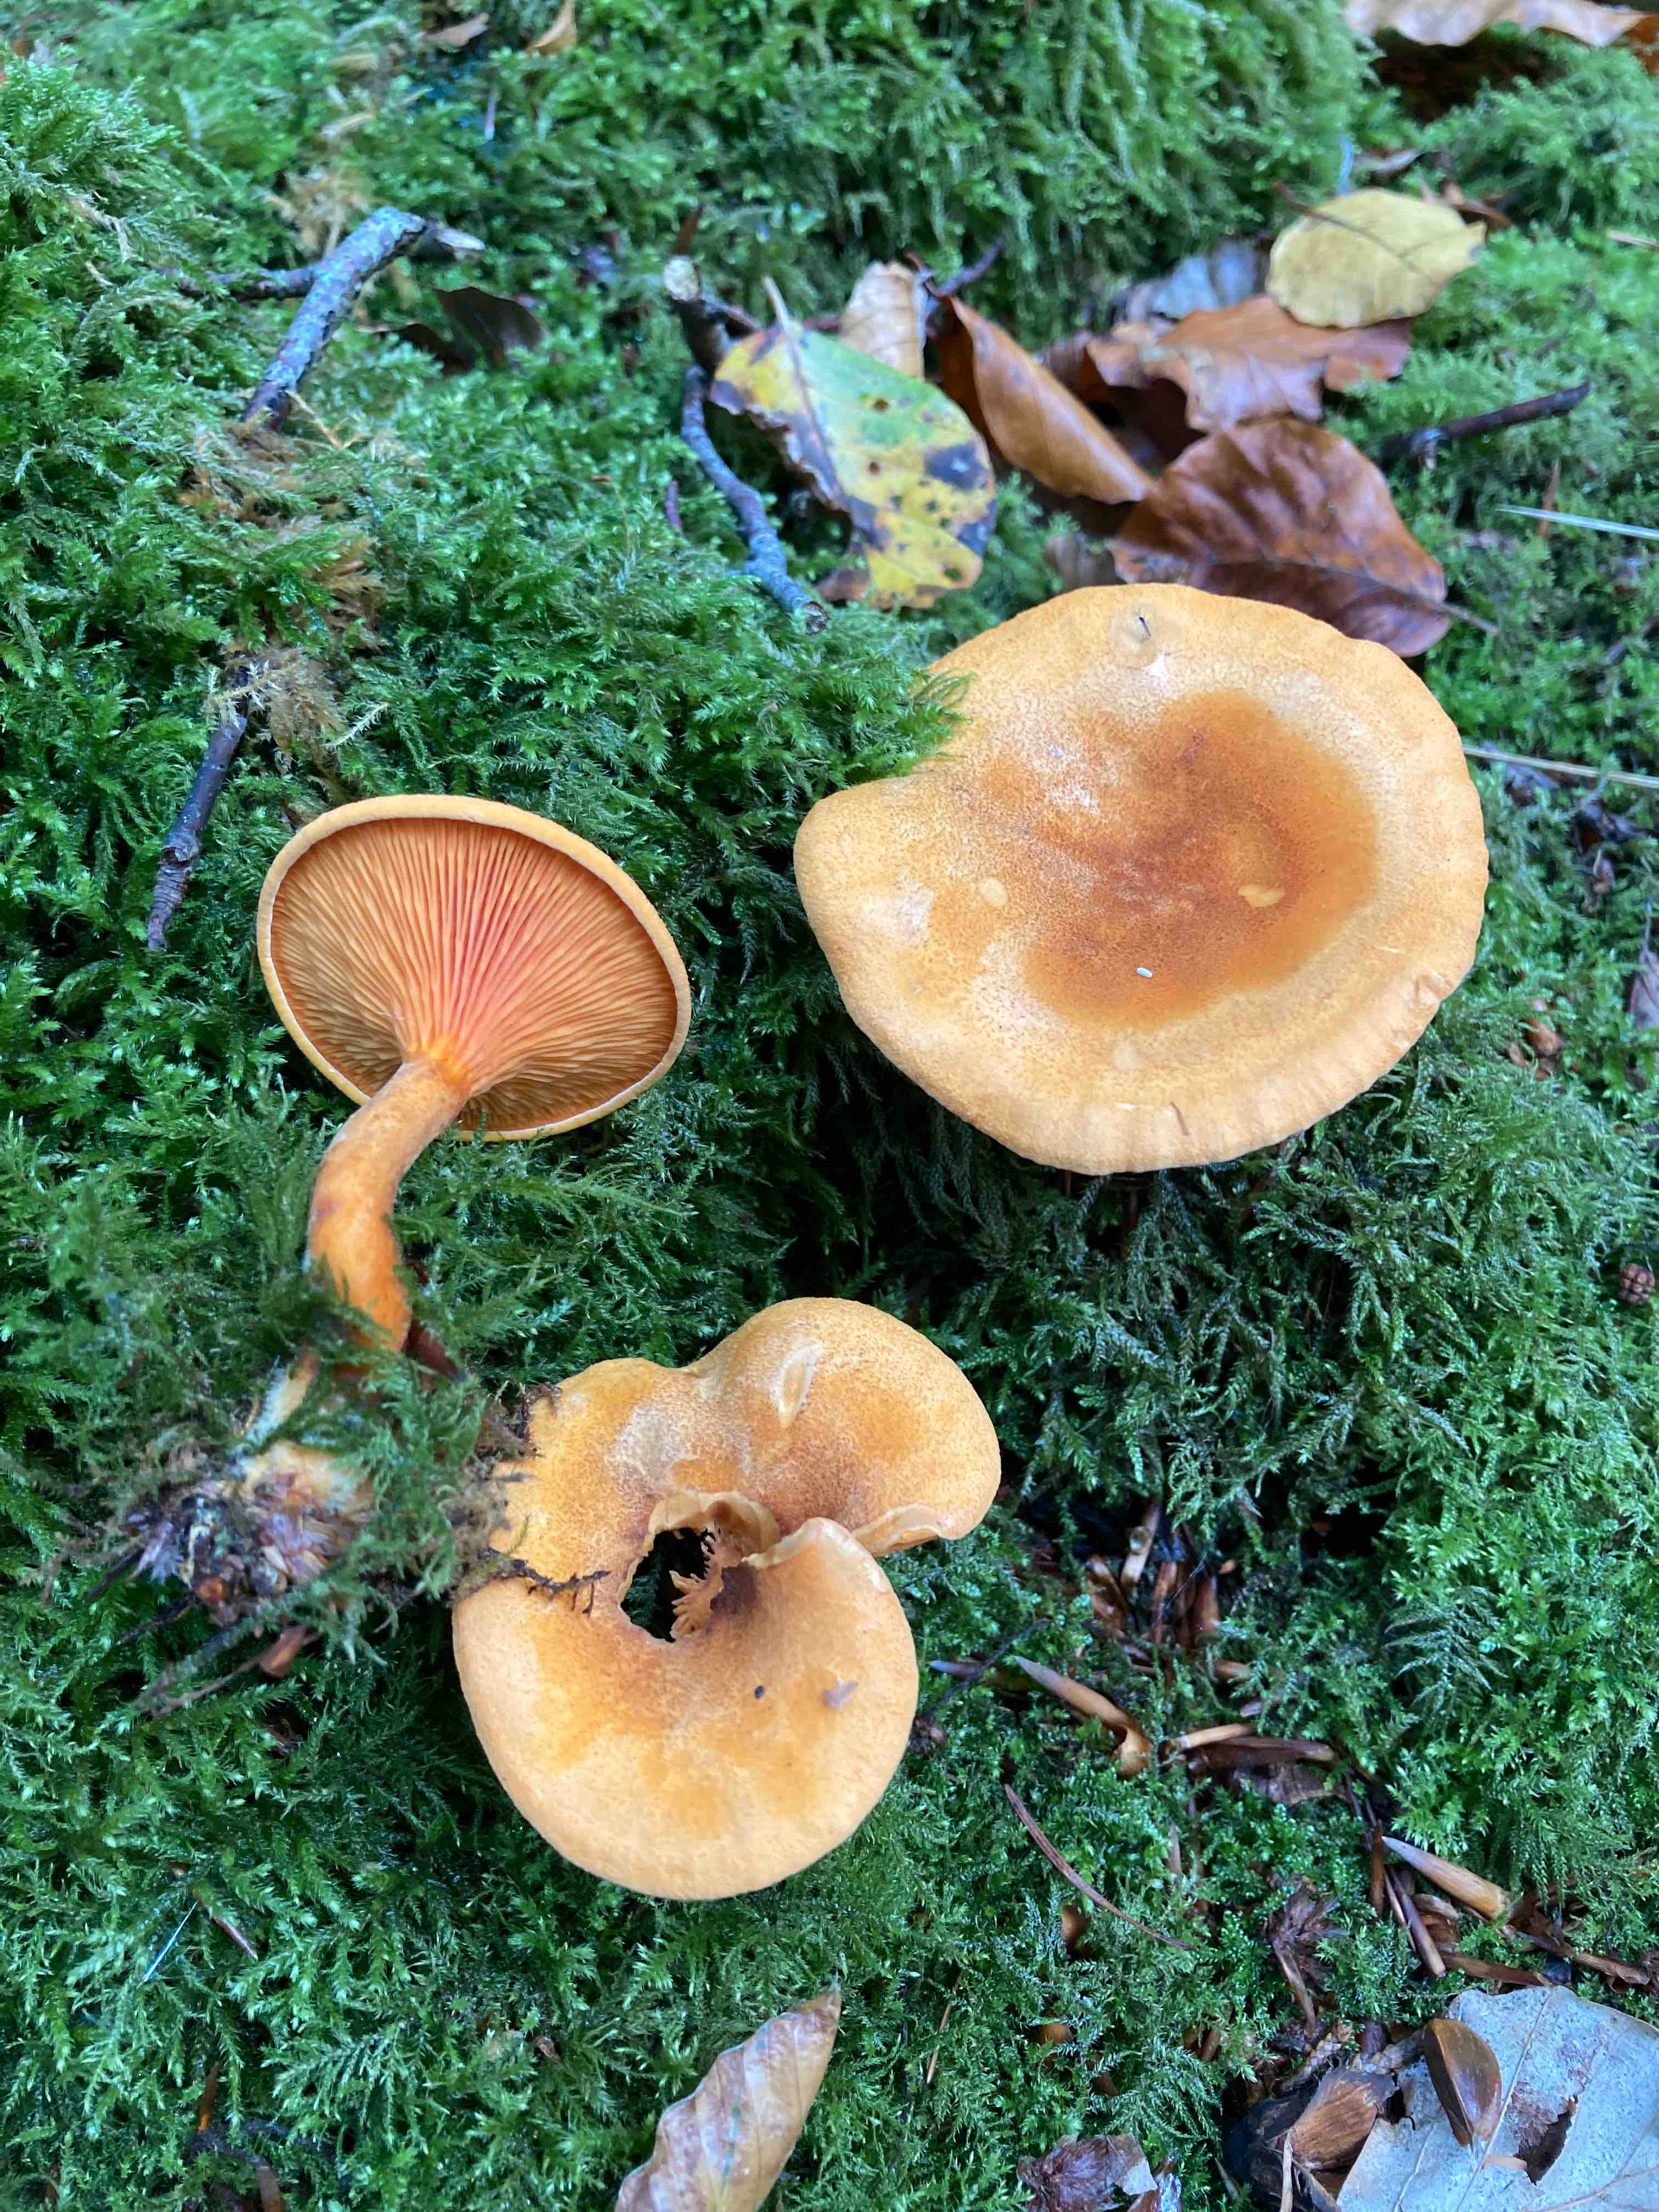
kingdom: Fungi
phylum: Basidiomycota
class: Agaricomycetes
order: Boletales
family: Hygrophoropsidaceae
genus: Hygrophoropsis
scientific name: Hygrophoropsis rufa
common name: brunfiltet orangekantarel
